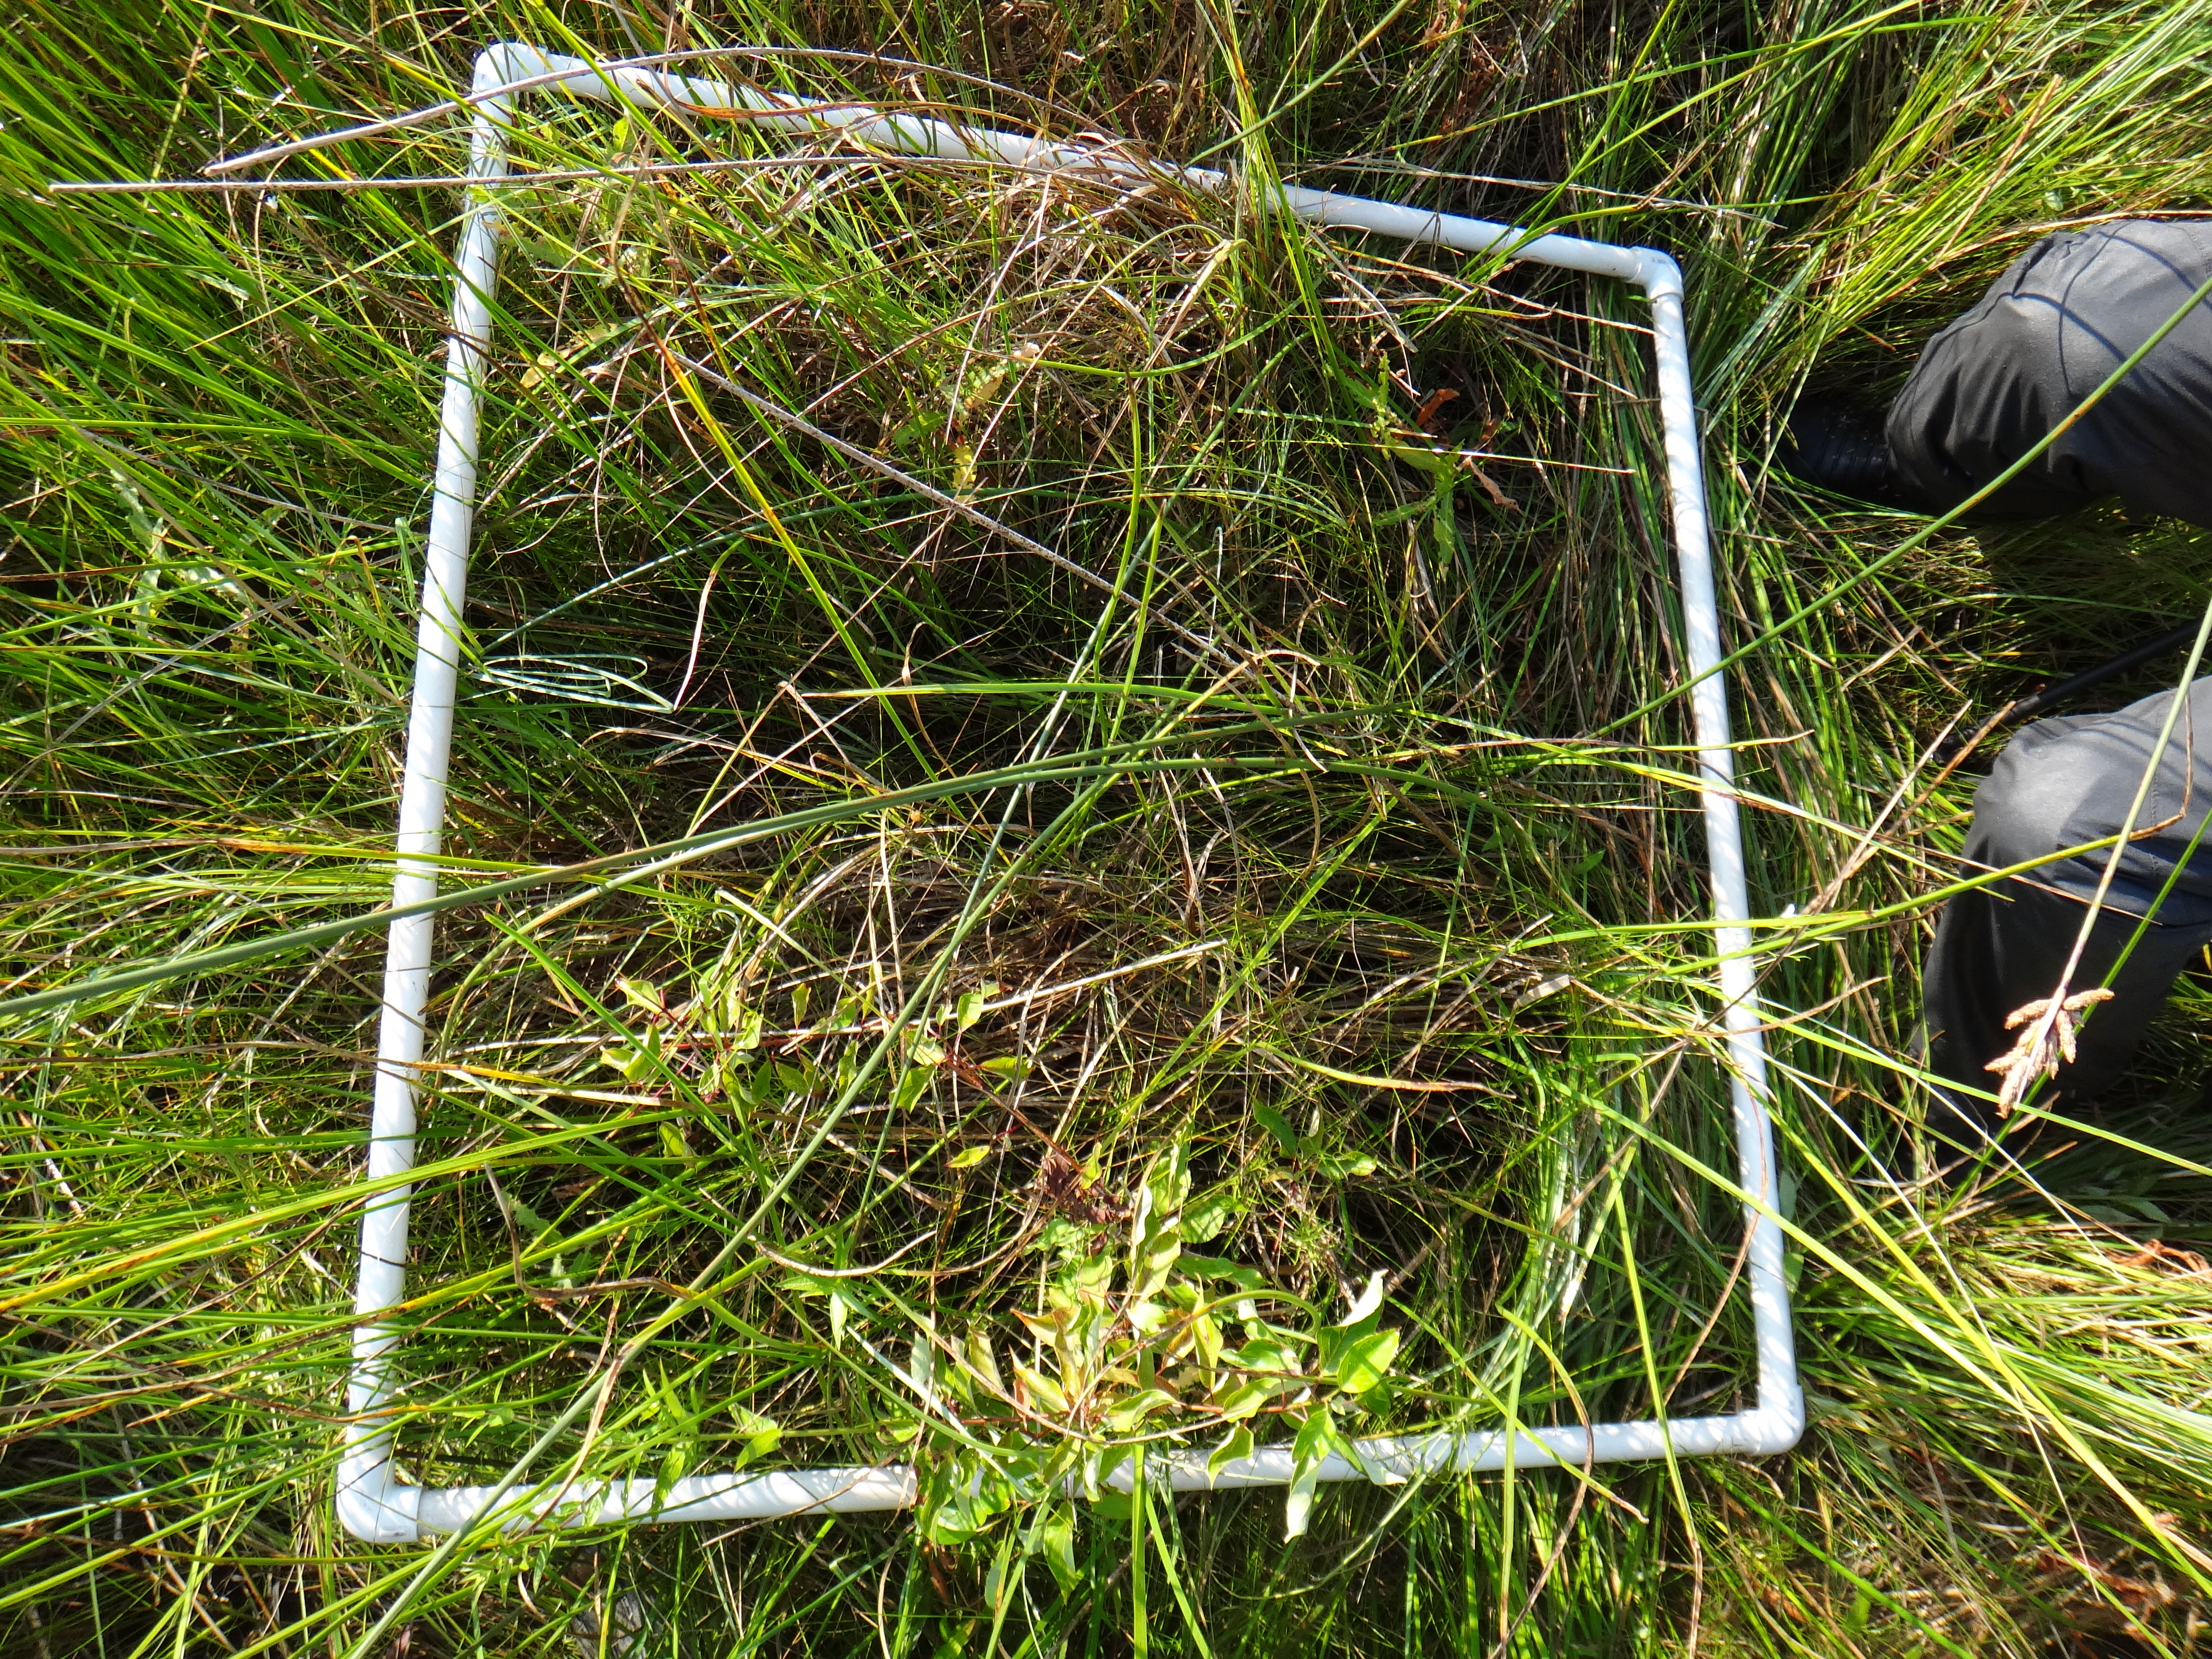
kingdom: Plantae
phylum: Tracheophyta
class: Magnoliopsida
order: Asterales
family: Campanulaceae
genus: Palustricodon
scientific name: Palustricodon aparinoides
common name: Bedstraw bellflower
